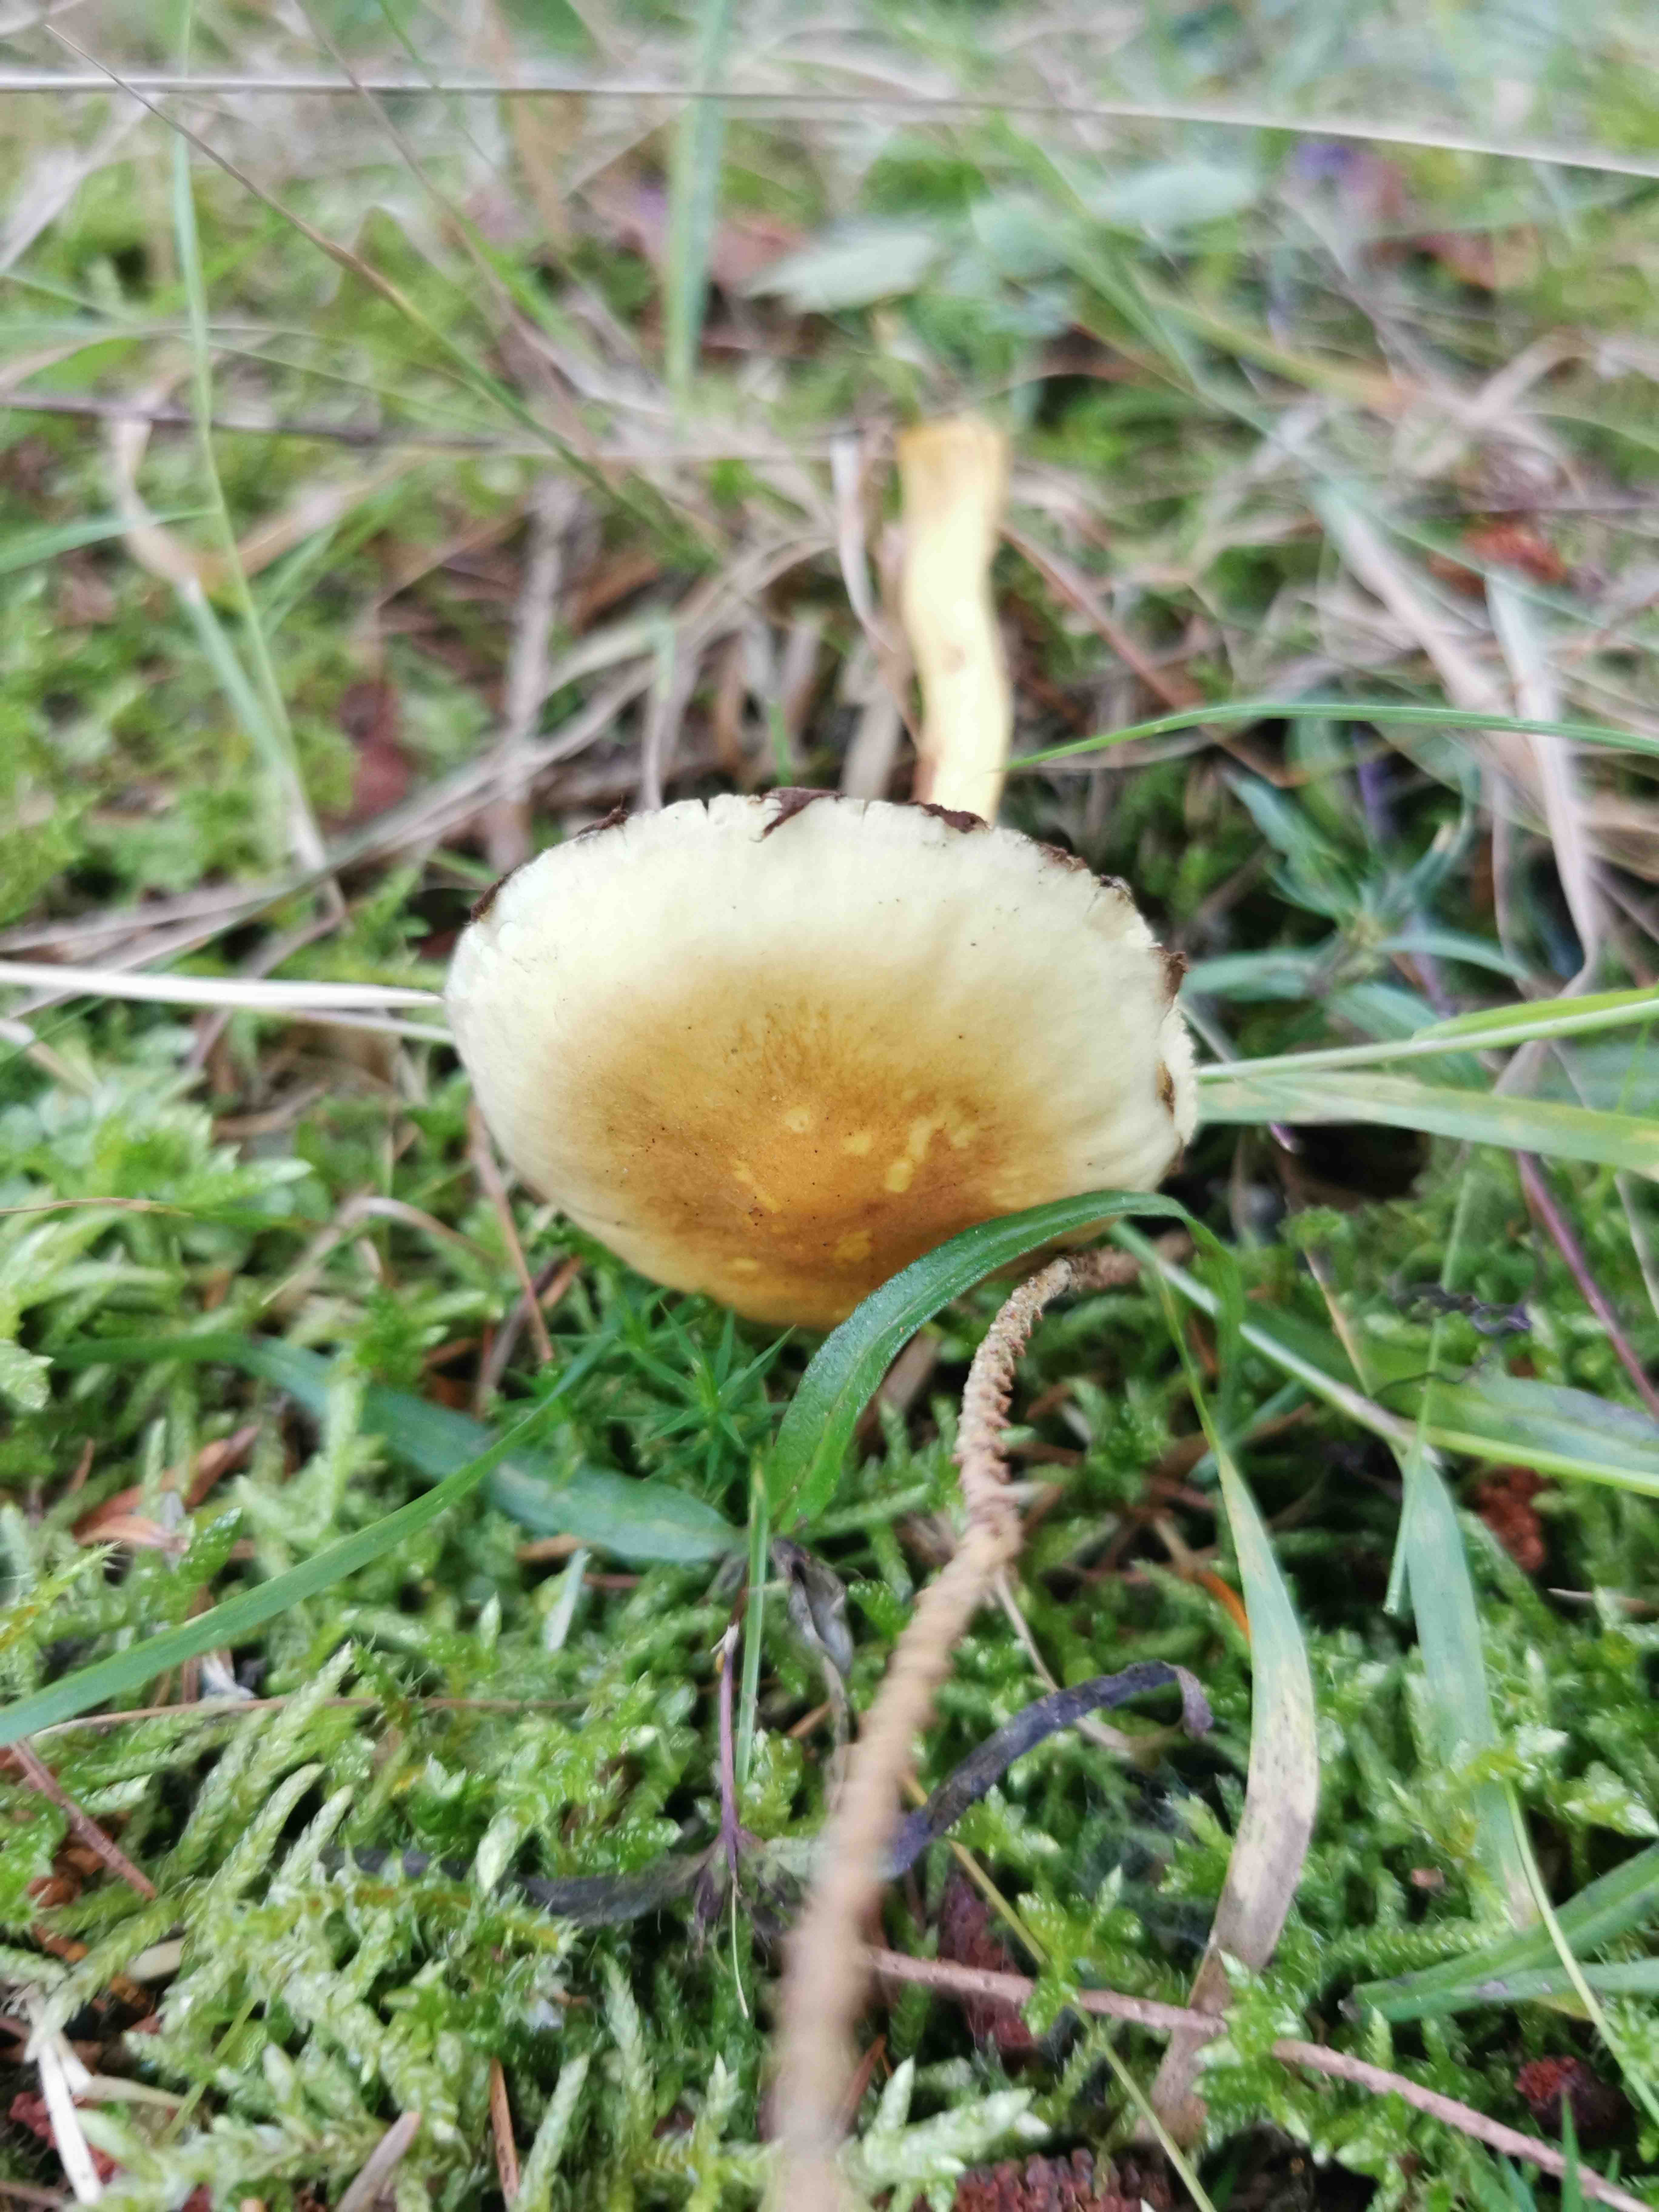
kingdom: Fungi
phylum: Basidiomycota
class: Agaricomycetes
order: Agaricales
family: Strophariaceae
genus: Hypholoma
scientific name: Hypholoma fasciculare
